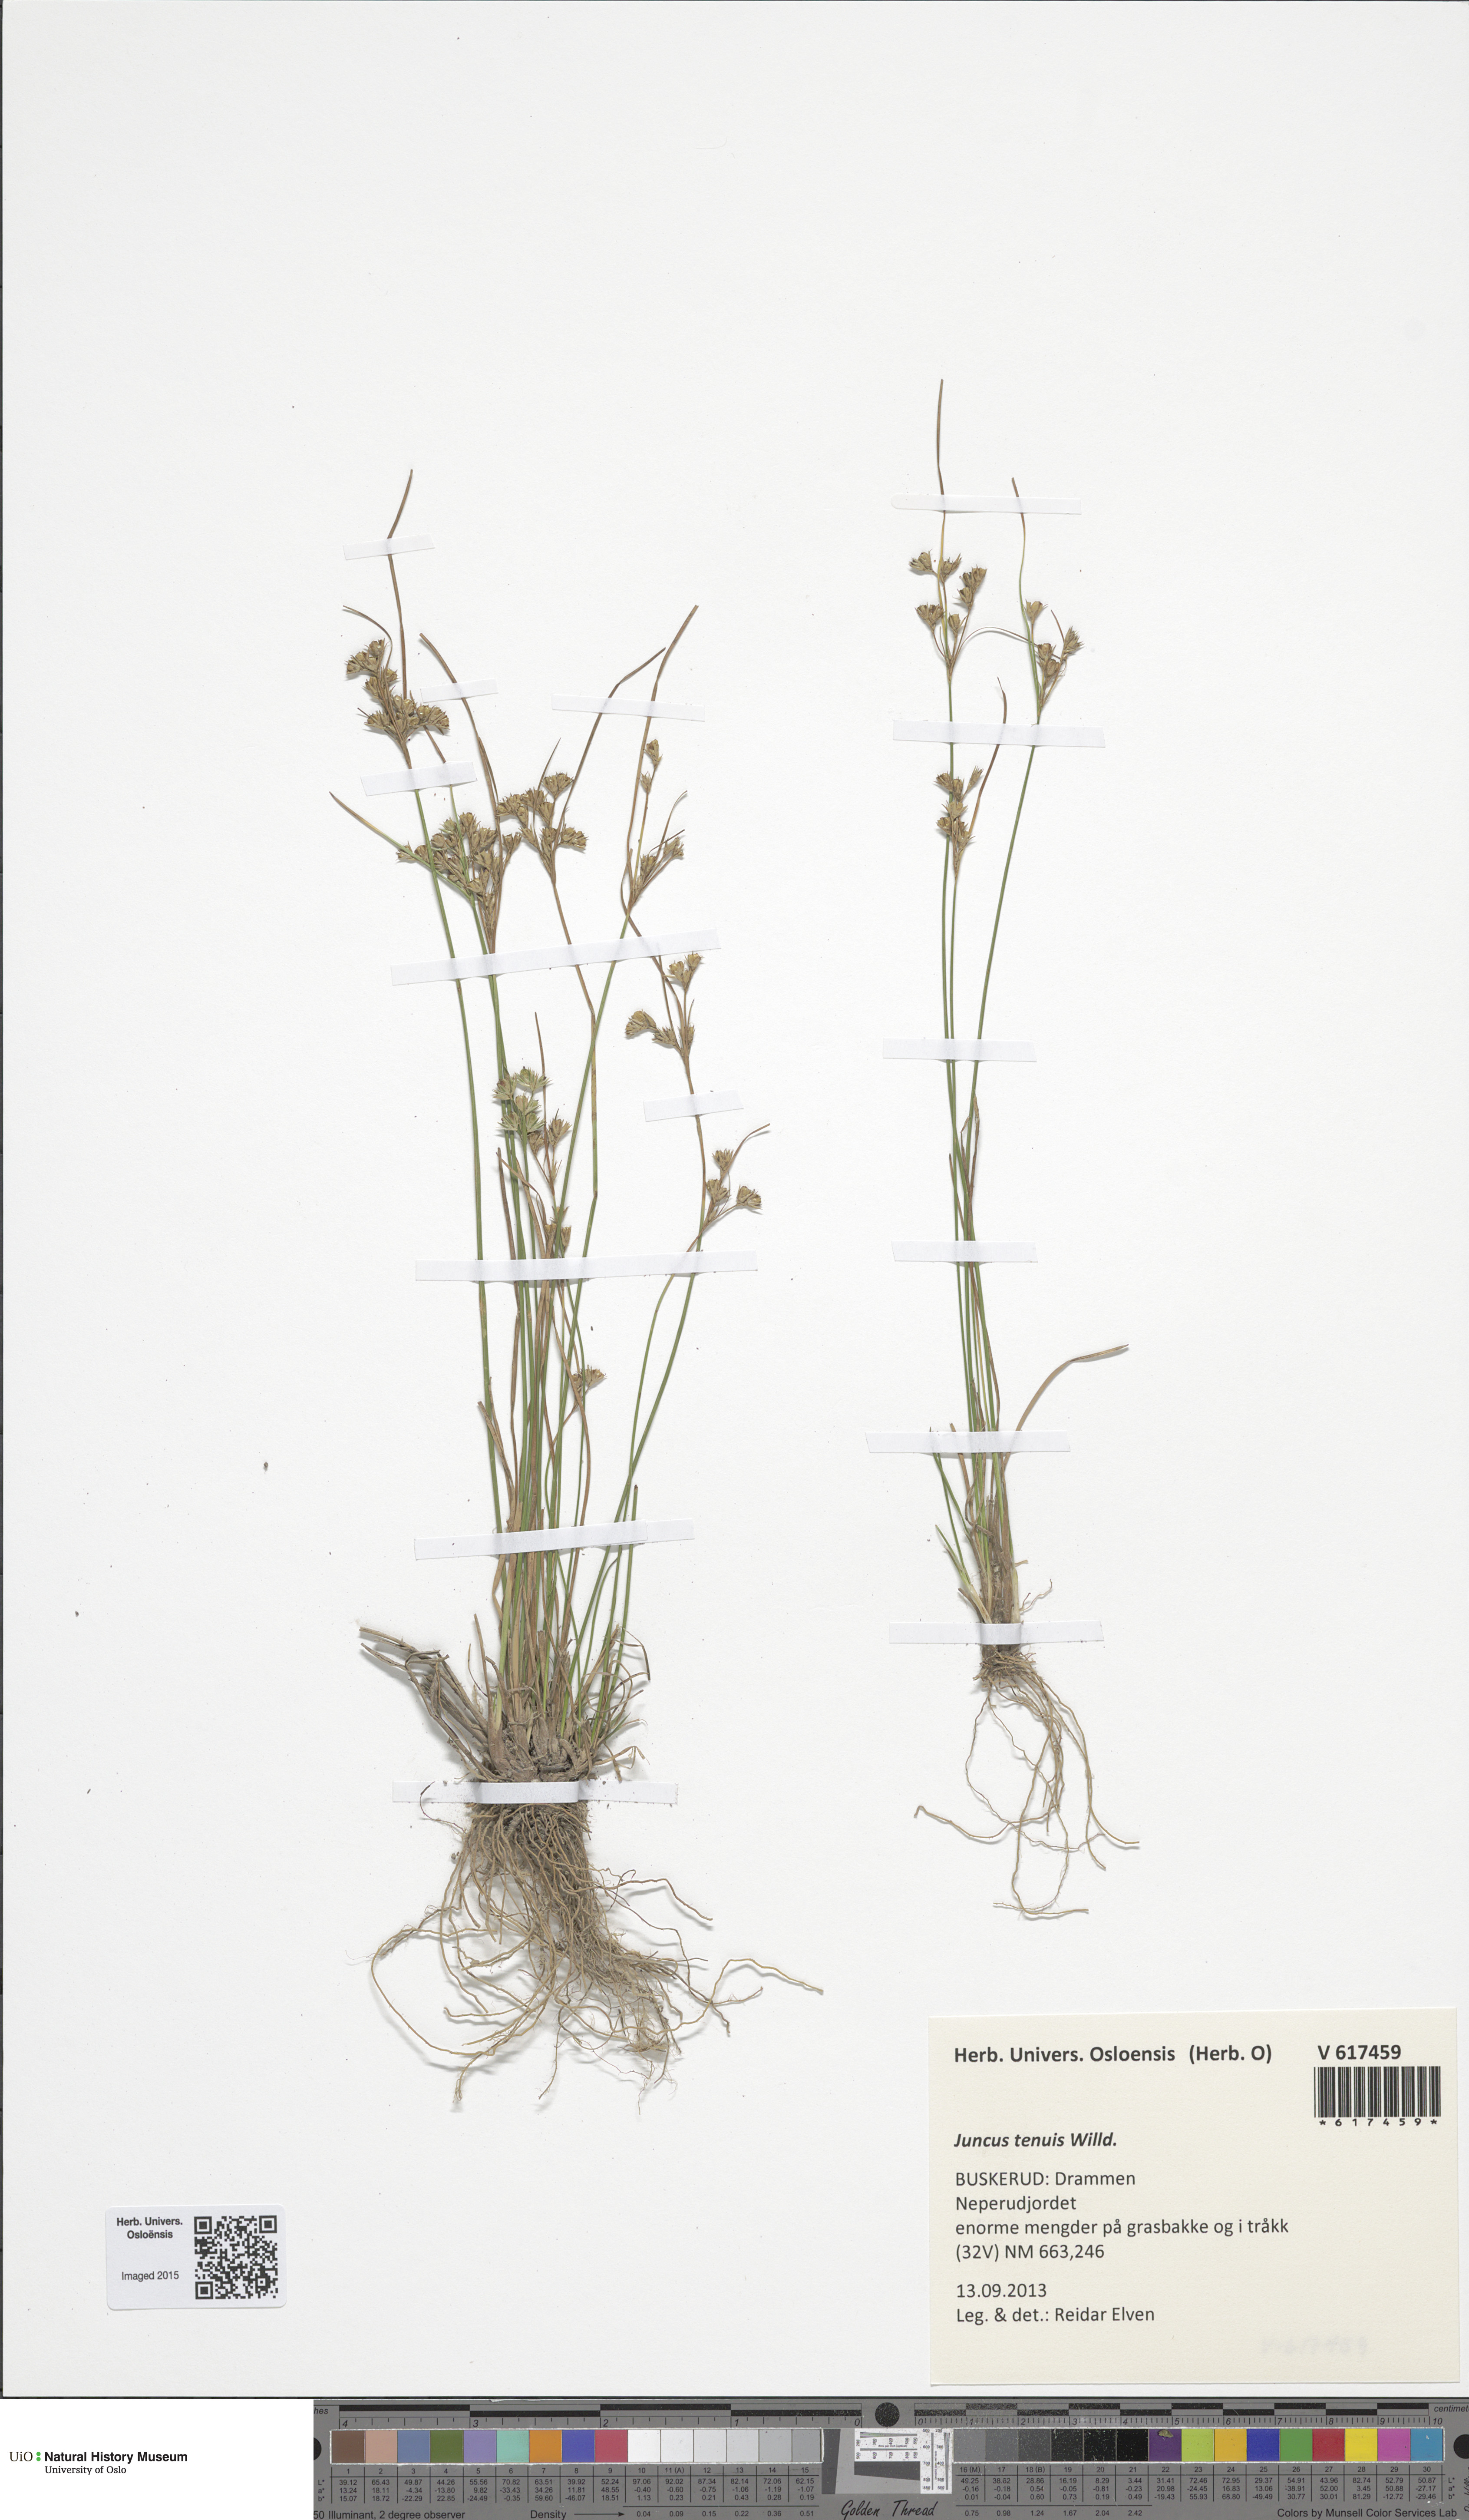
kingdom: Plantae
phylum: Tracheophyta
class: Liliopsida
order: Poales
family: Juncaceae
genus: Juncus
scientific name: Juncus tenuis
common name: Slender rush
